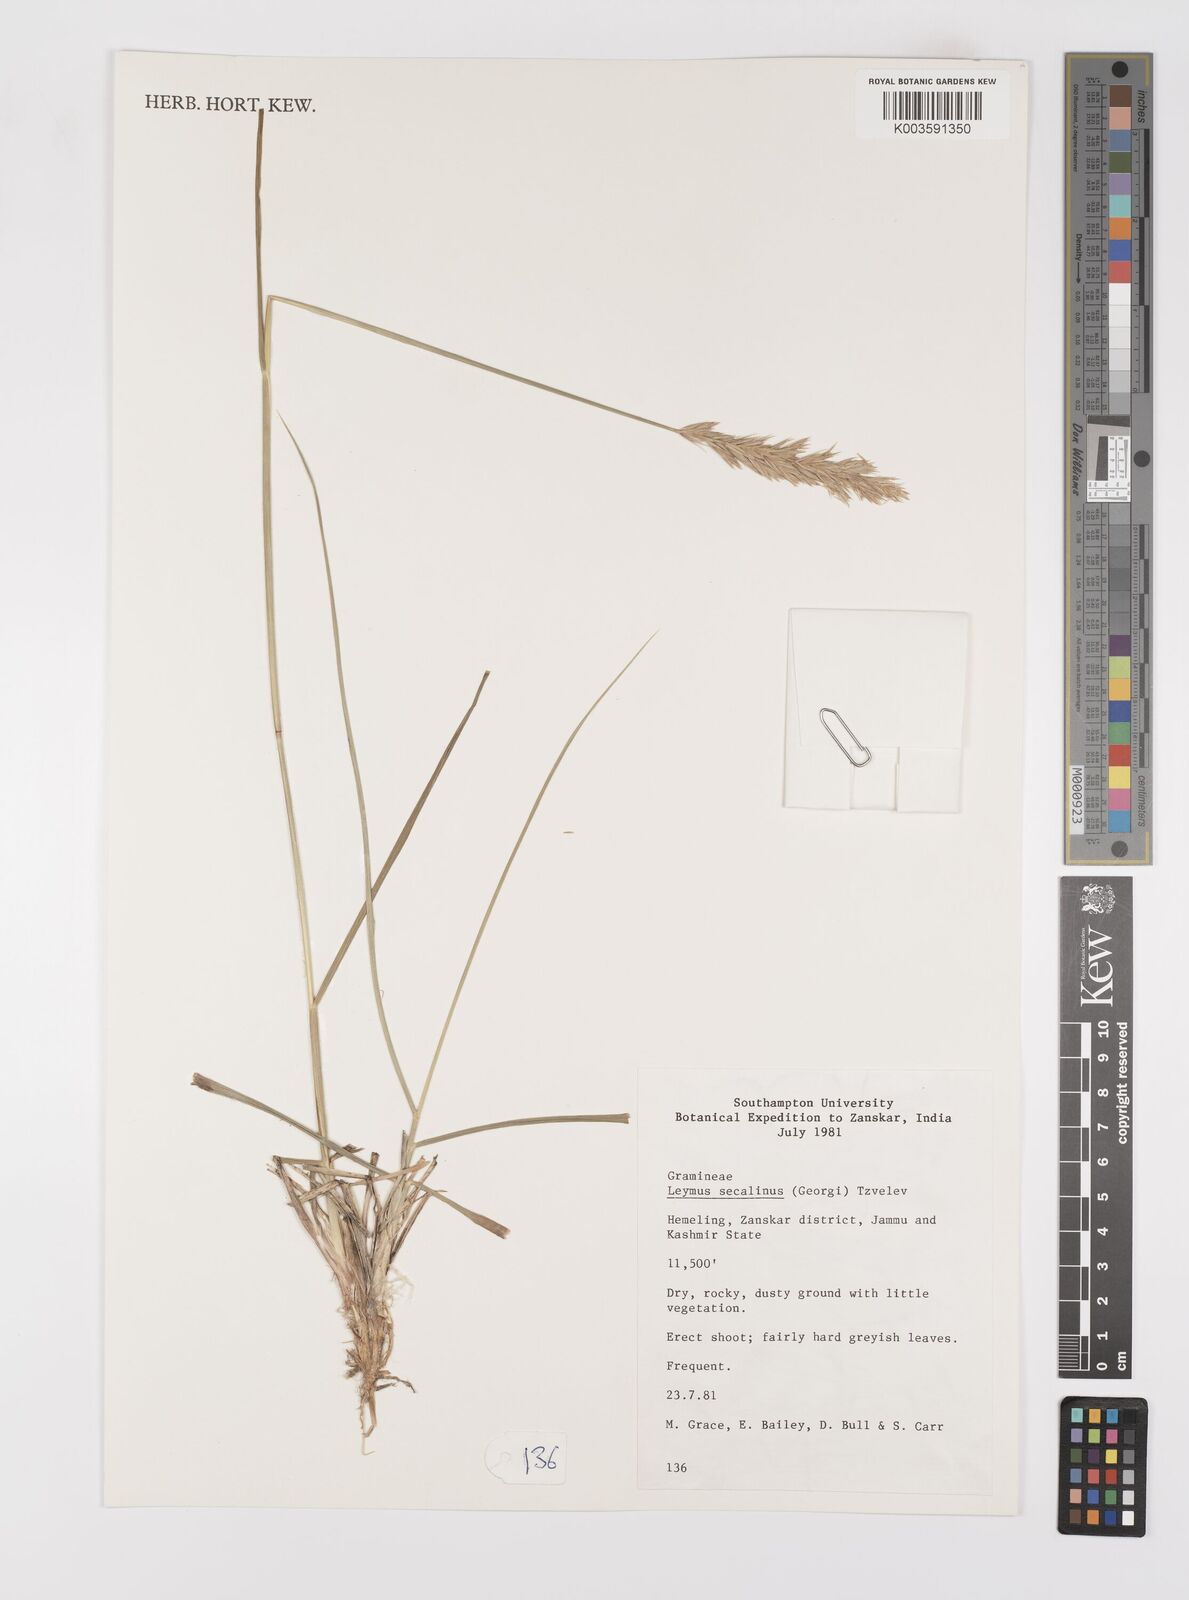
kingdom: Plantae
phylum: Tracheophyta
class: Liliopsida
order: Poales
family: Poaceae
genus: Leymus
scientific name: Leymus secalinus
